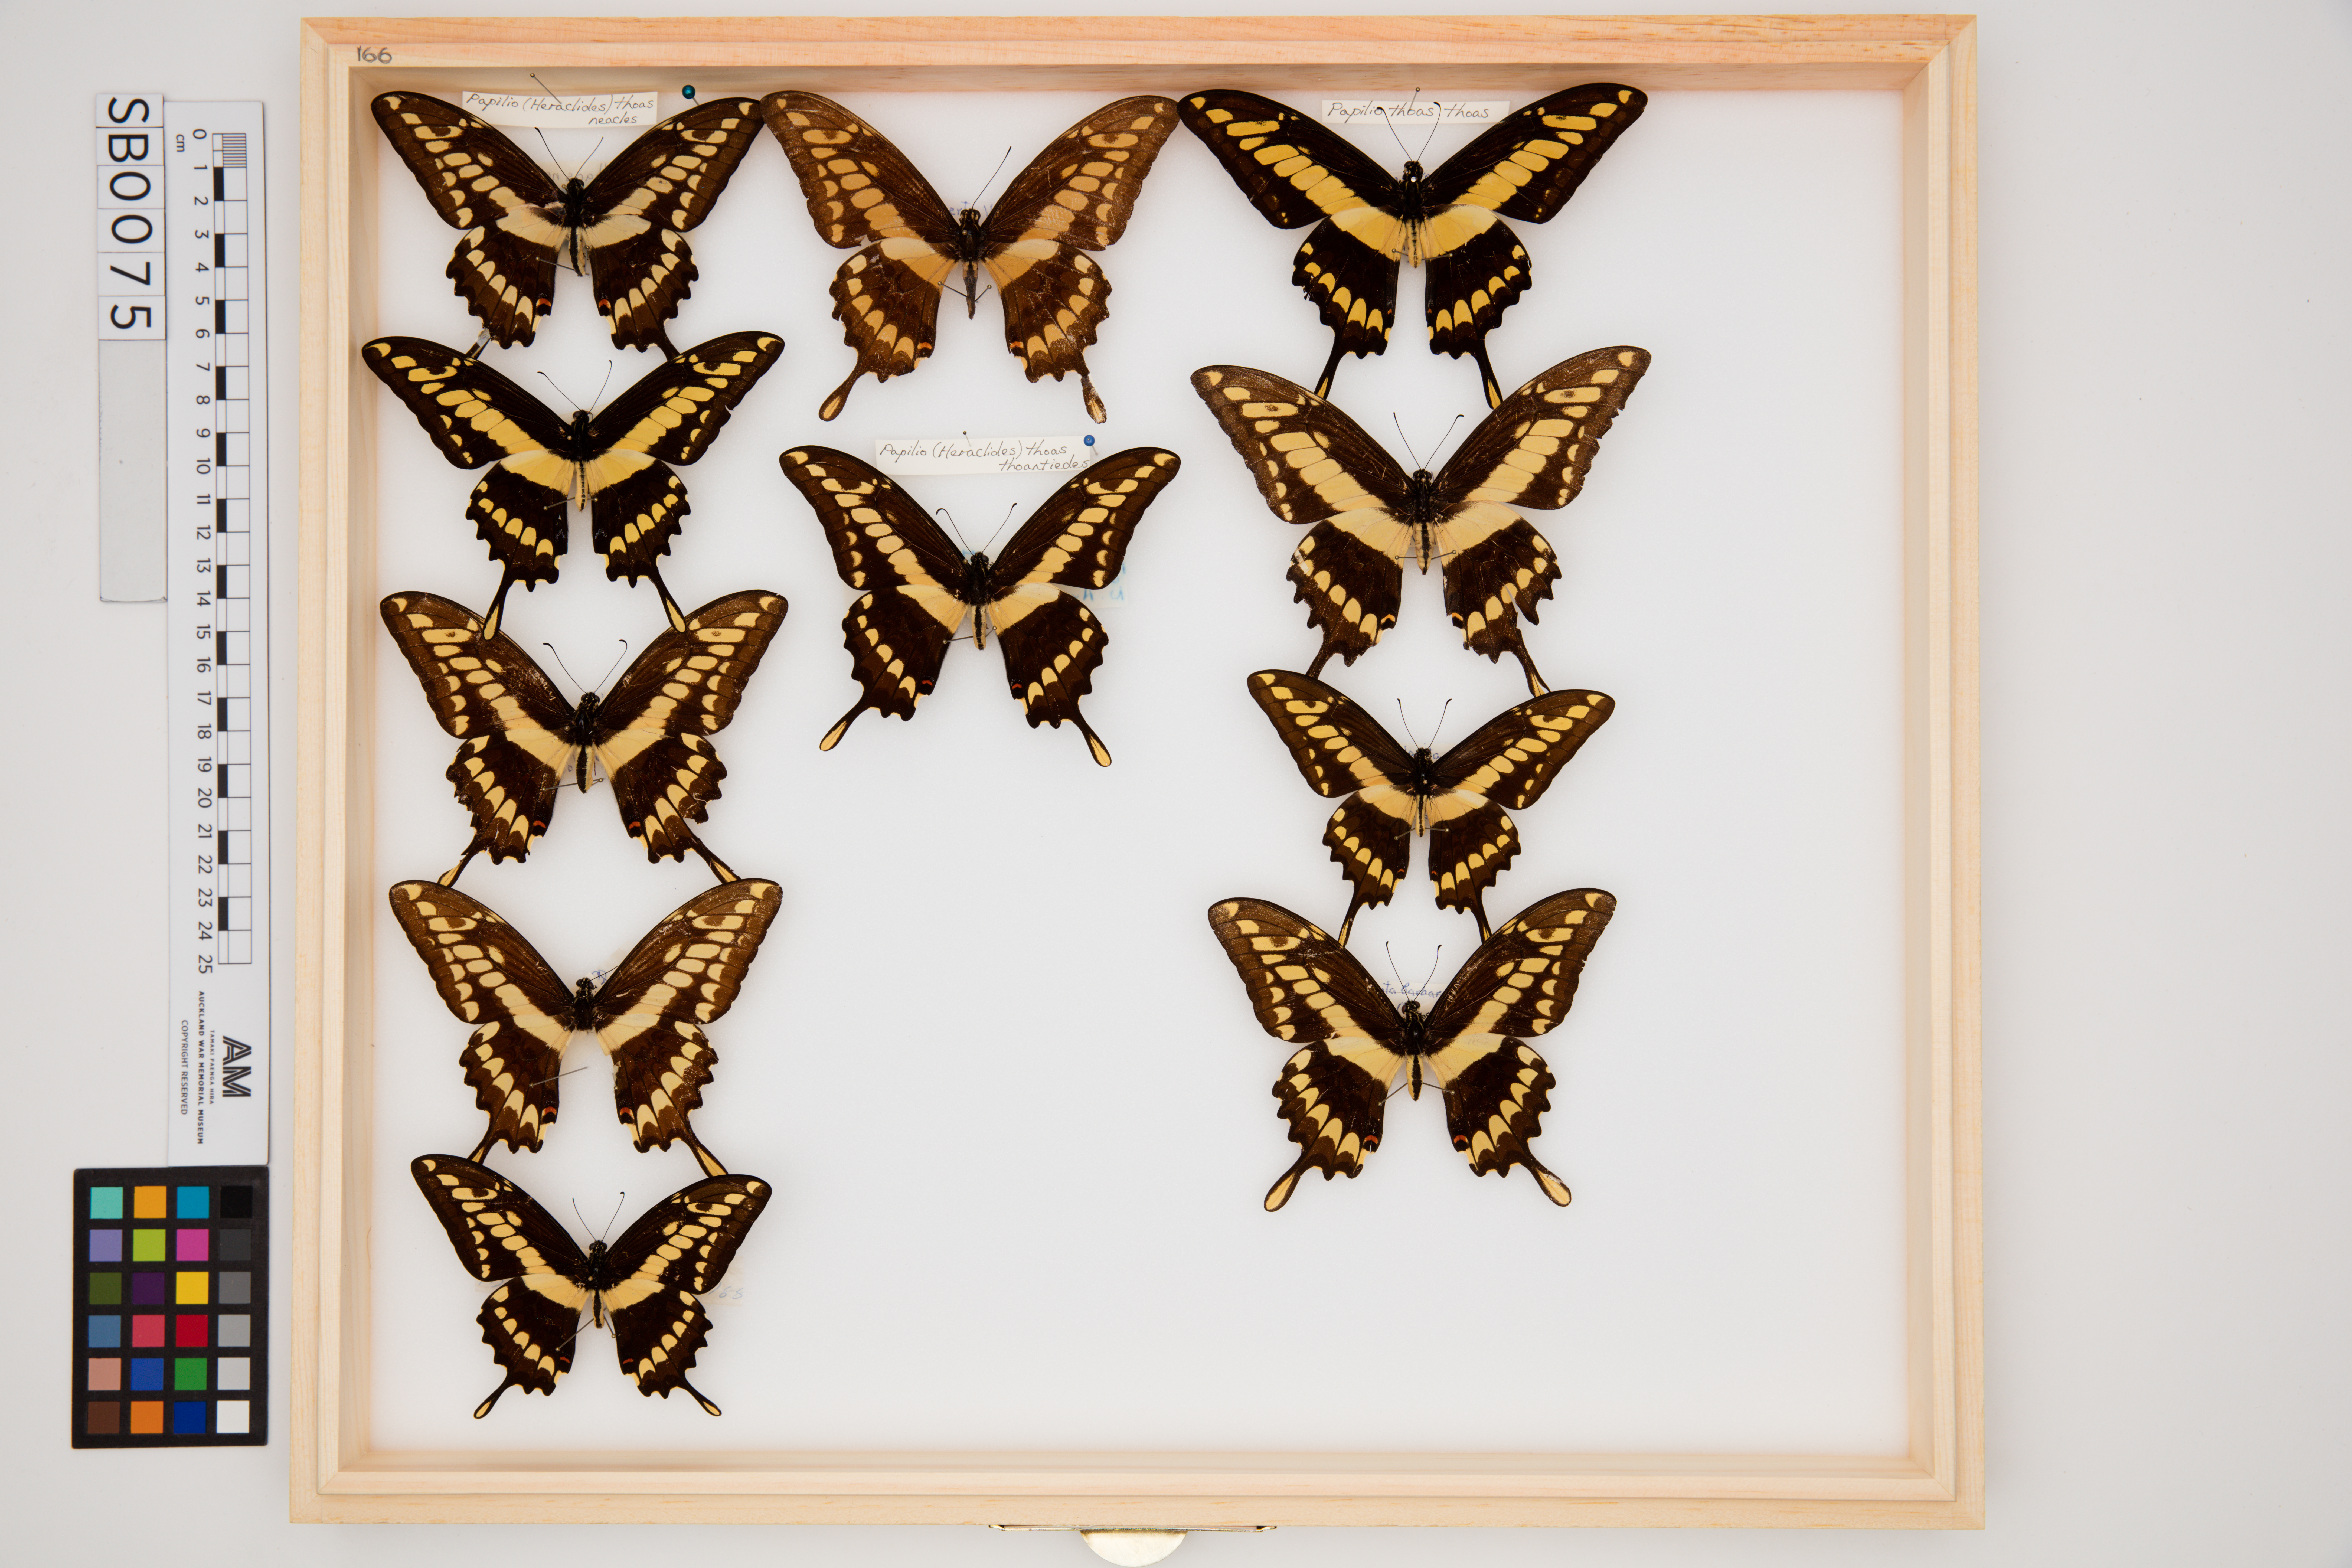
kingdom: Animalia
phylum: Arthropoda
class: Insecta
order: Lepidoptera
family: Papilionidae
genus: Papilio
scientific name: Papilio thoas
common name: King swallowtail
